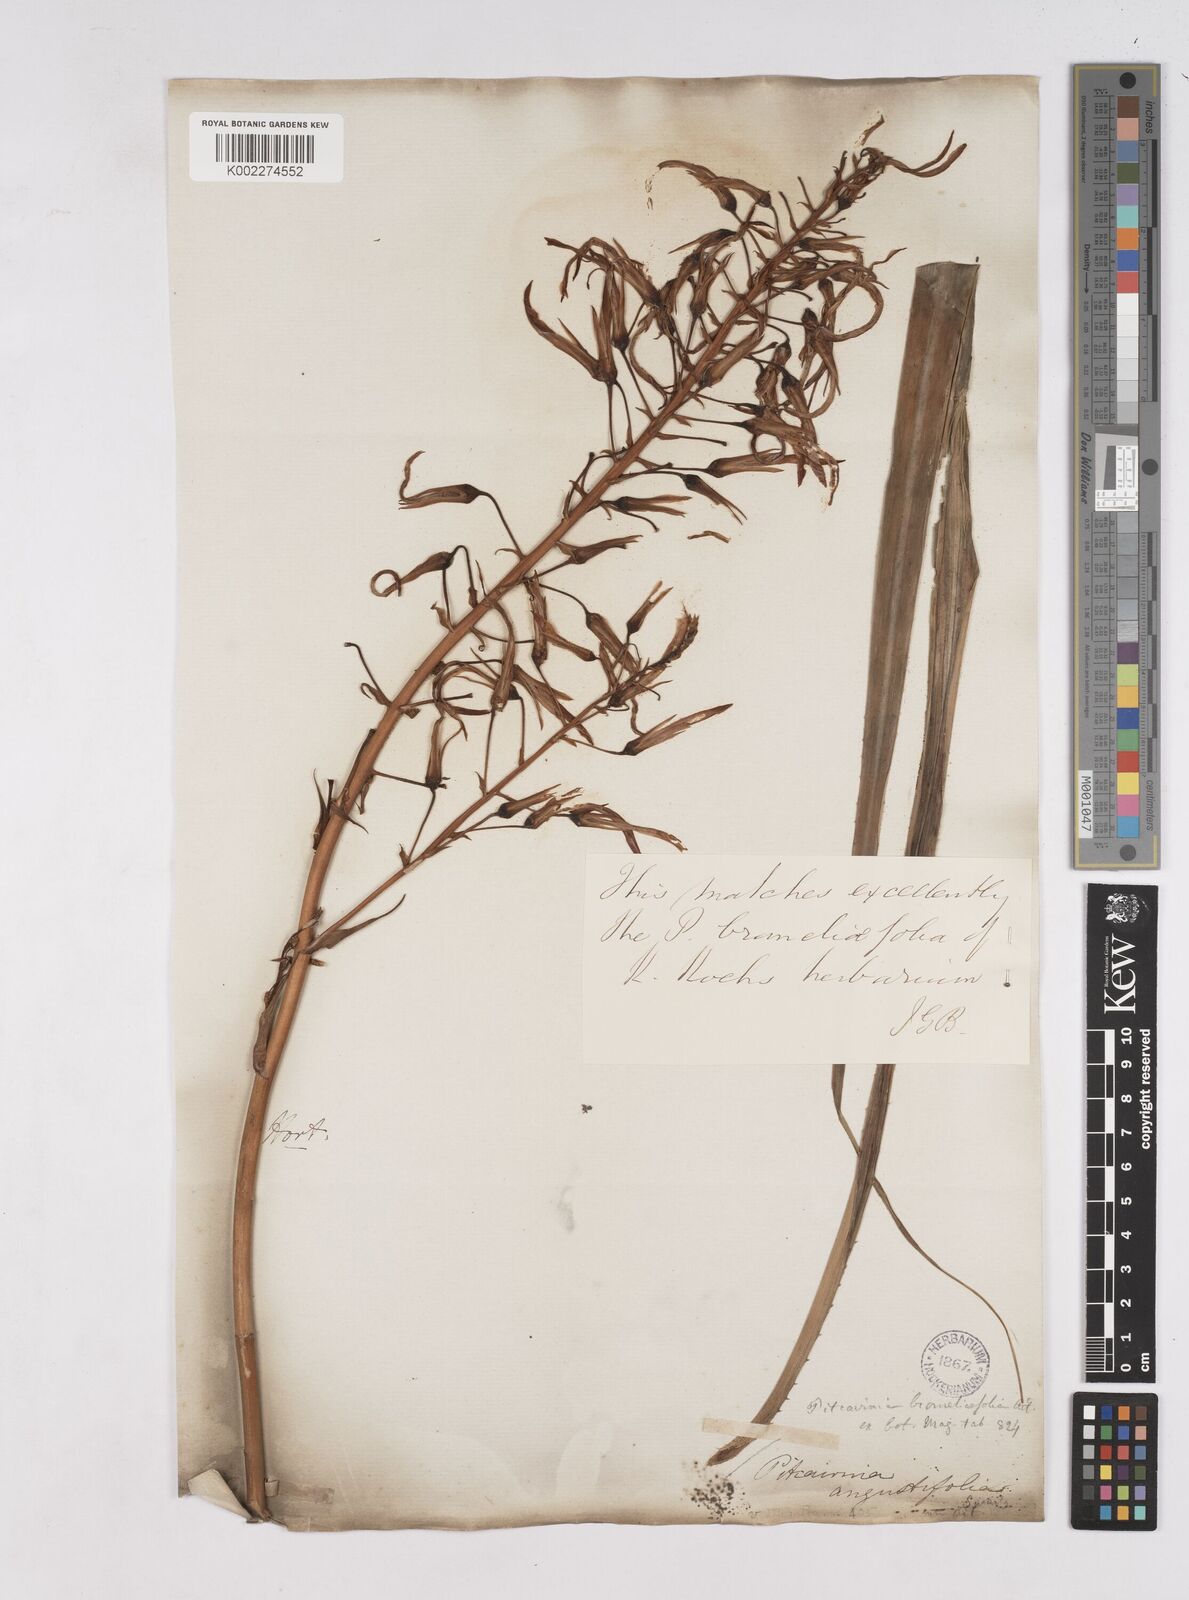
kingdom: Plantae
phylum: Tracheophyta
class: Liliopsida
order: Poales
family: Bromeliaceae
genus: Pitcairnia
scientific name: Pitcairnia bromeliifolia
